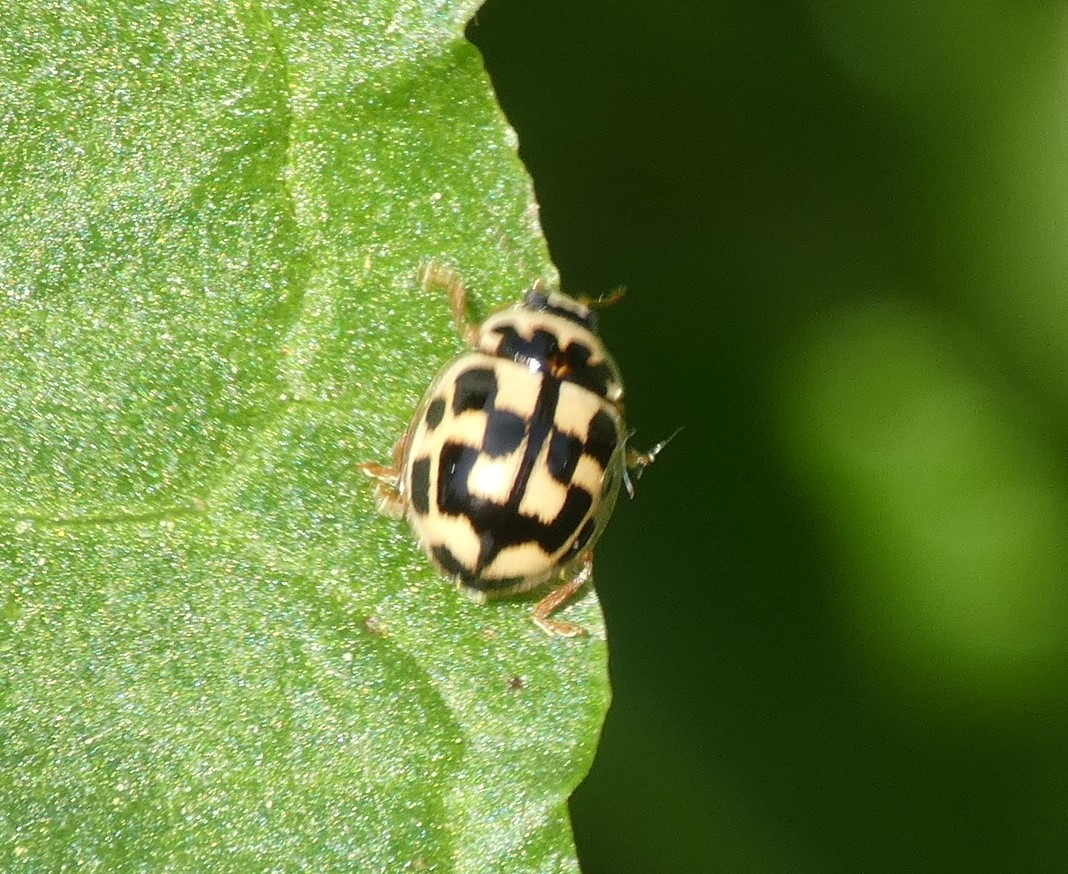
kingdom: Animalia
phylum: Arthropoda
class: Insecta
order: Coleoptera
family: Coccinellidae
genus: Propylaea
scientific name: Propylaea quatuordecimpunctata
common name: Skakbræt
